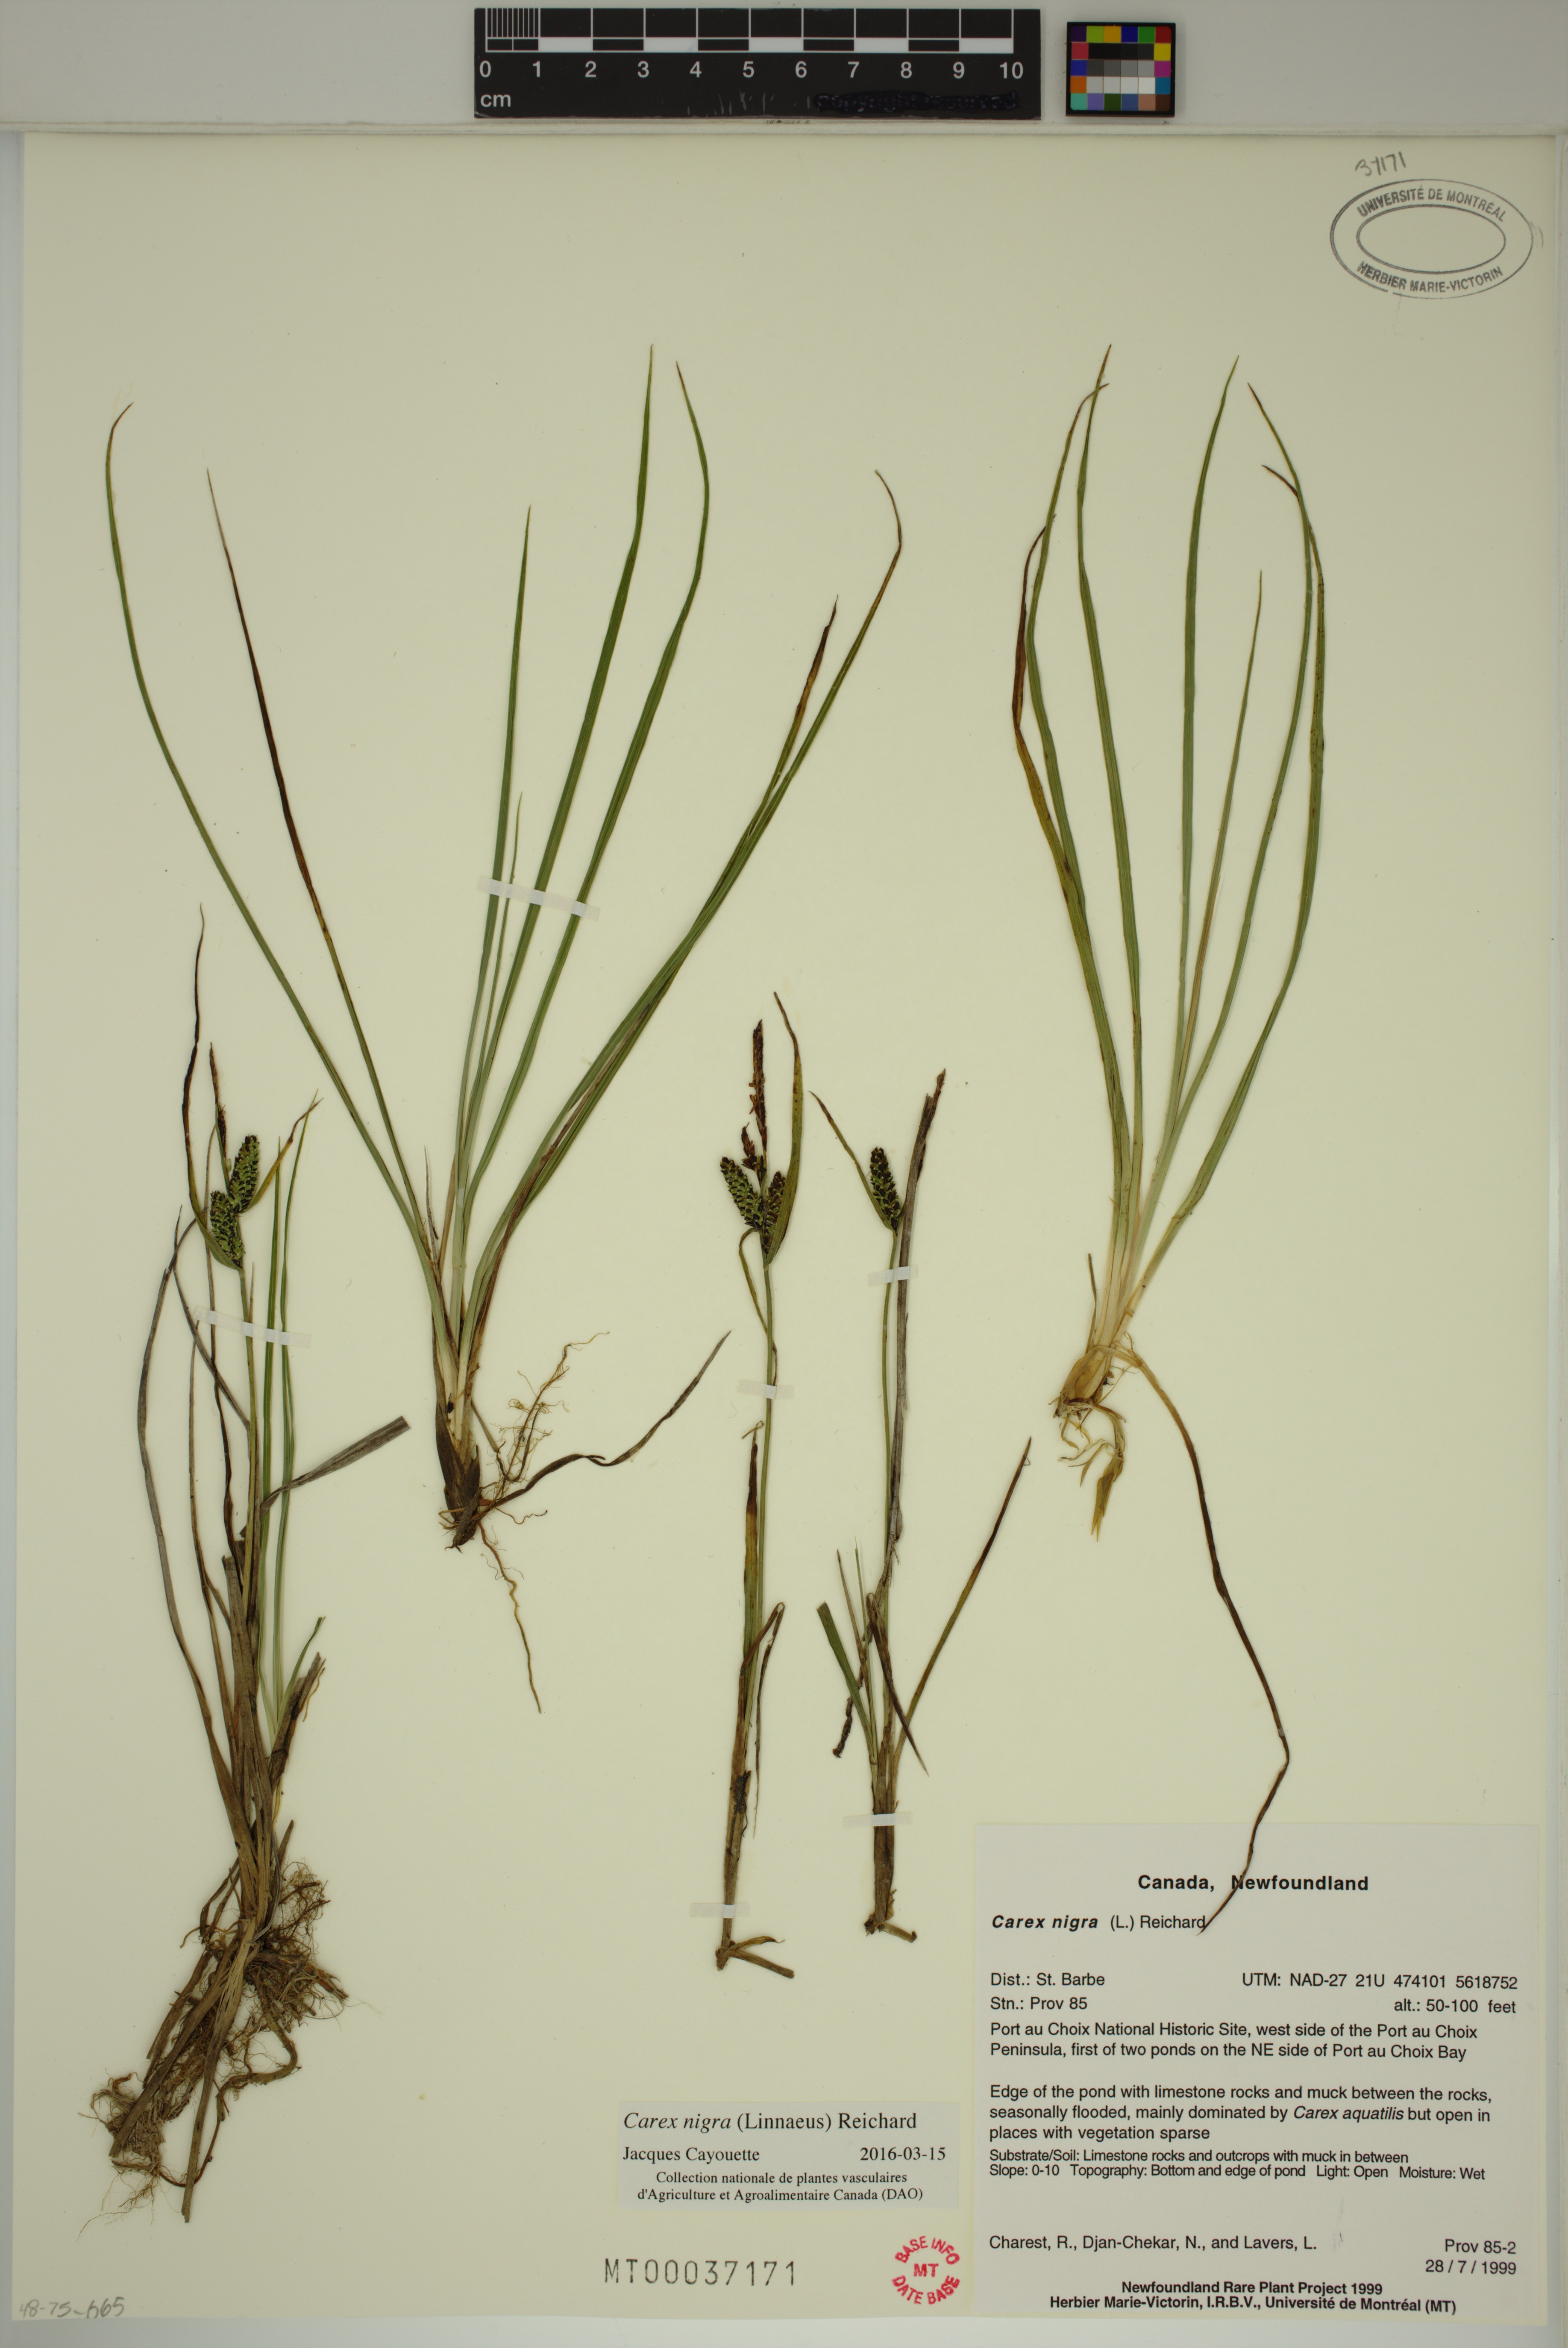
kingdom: Plantae
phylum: Tracheophyta
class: Liliopsida
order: Poales
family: Cyperaceae
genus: Carex
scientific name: Carex nigra
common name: Common sedge
